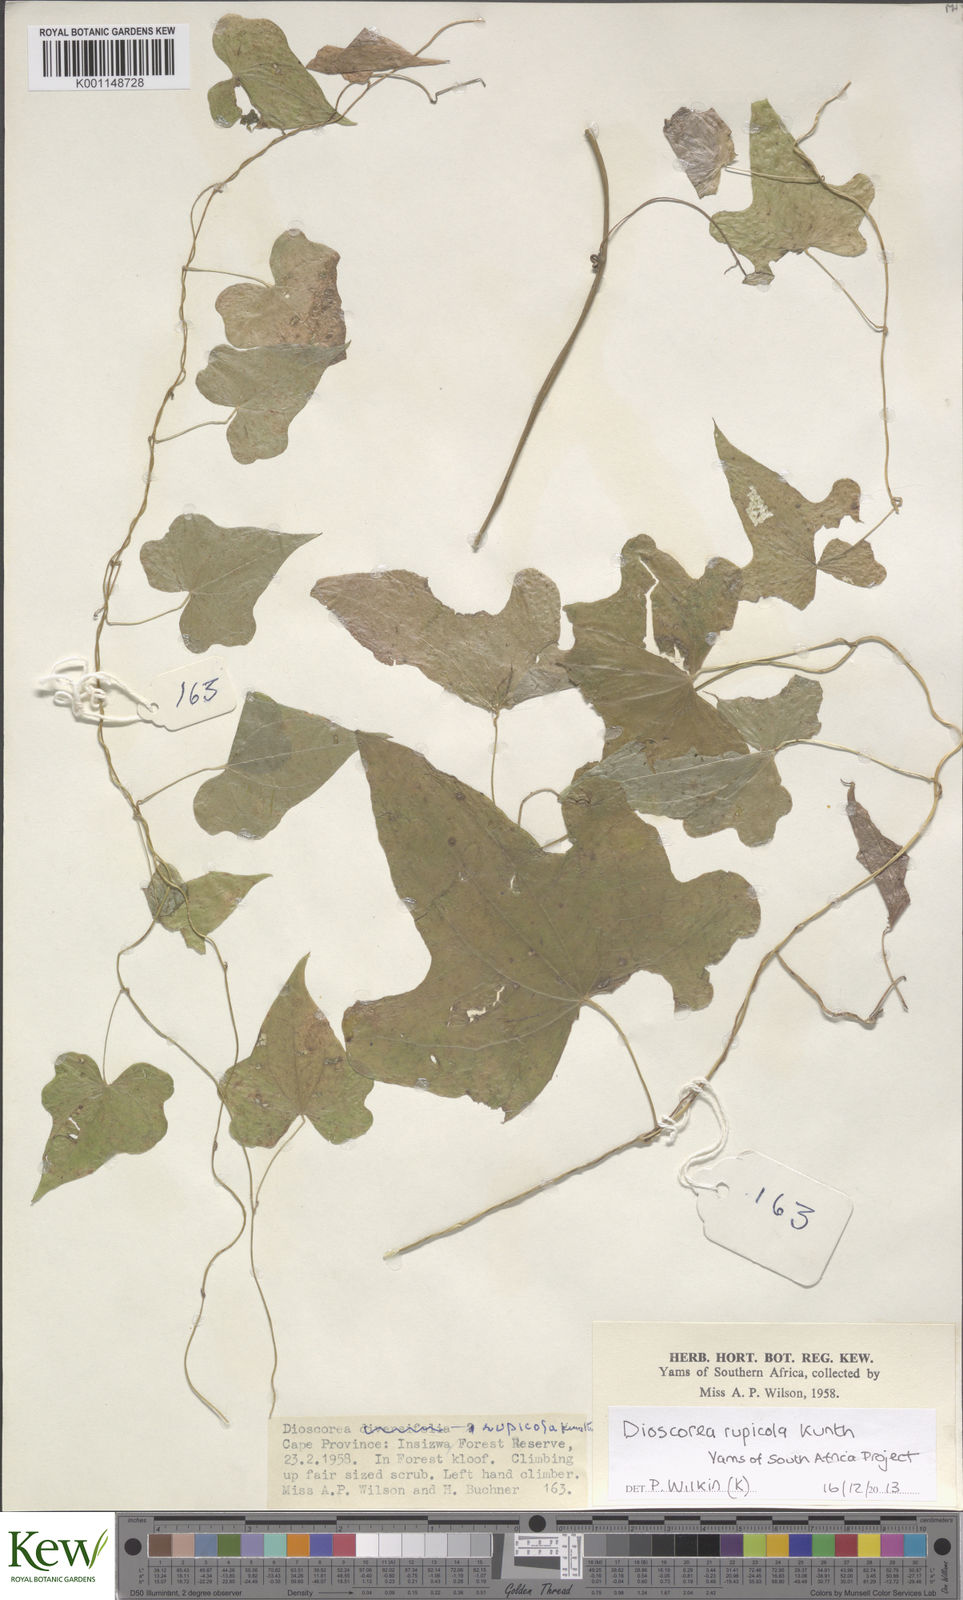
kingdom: Plantae
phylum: Tracheophyta
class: Liliopsida
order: Dioscoreales
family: Dioscoreaceae
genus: Dioscorea
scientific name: Dioscorea rupicola
